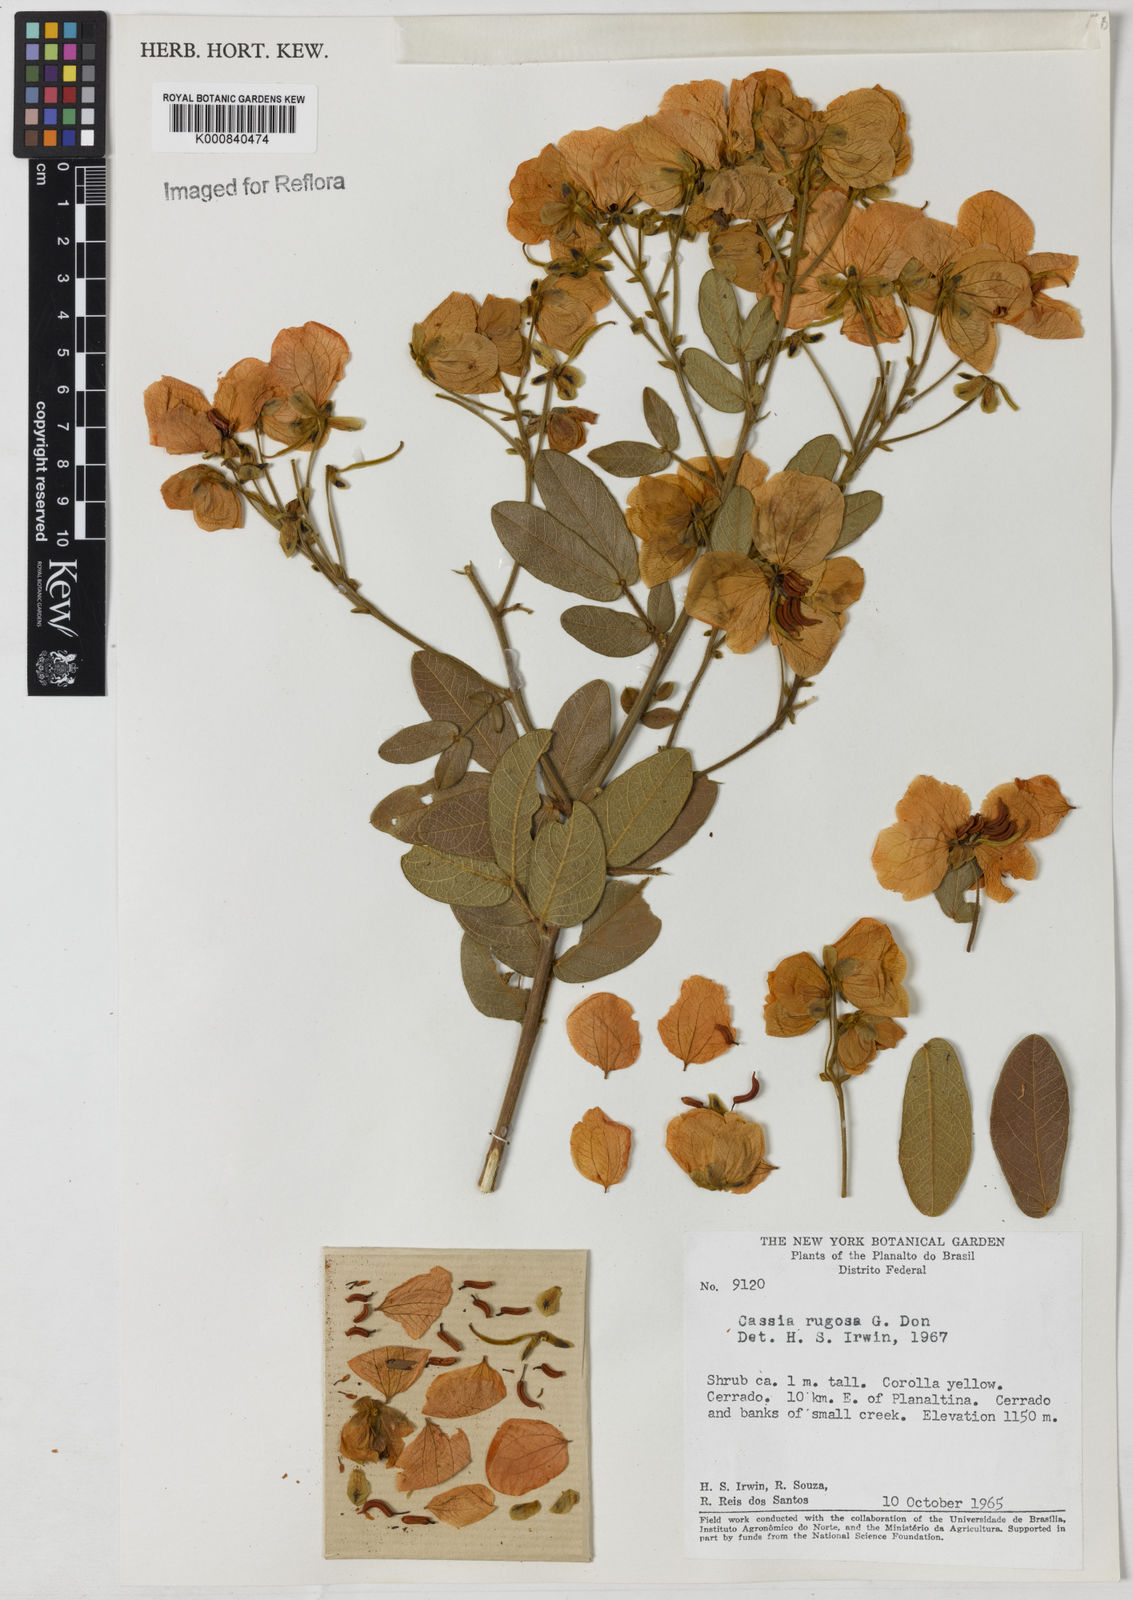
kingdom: Plantae
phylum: Tracheophyta
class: Magnoliopsida
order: Fabales
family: Fabaceae
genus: Senna
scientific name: Senna rugosa
